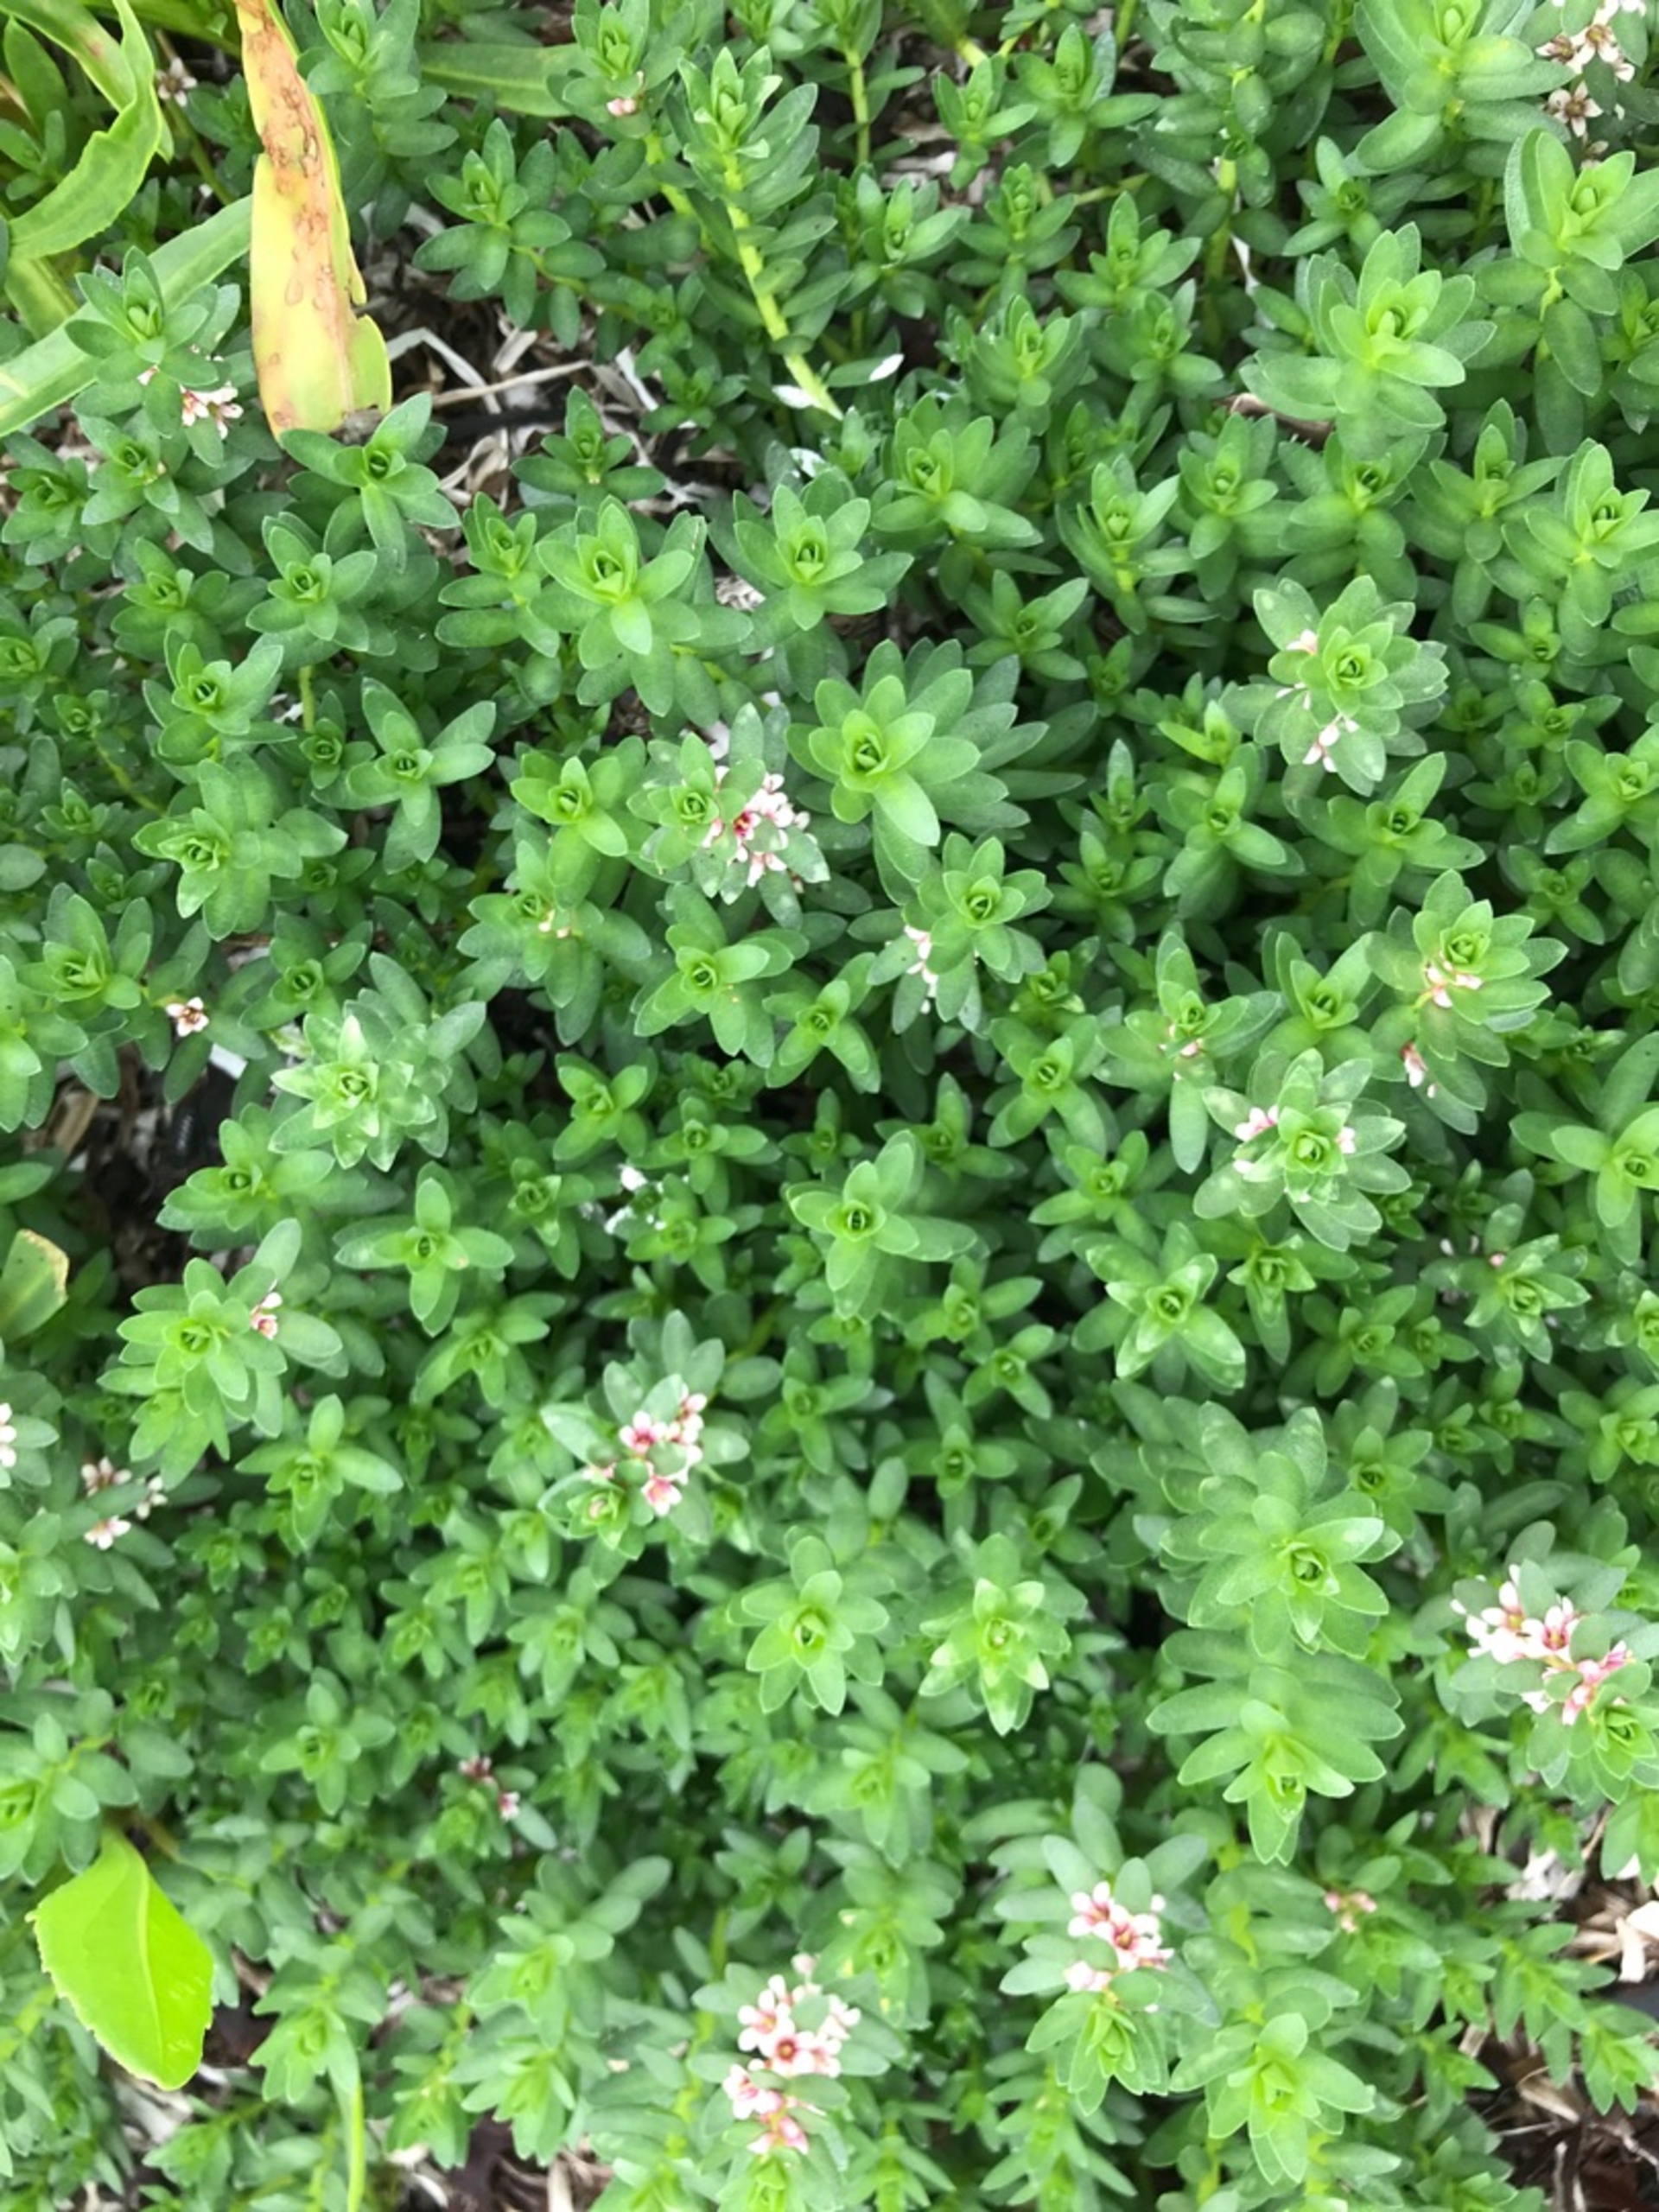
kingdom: Plantae
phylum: Tracheophyta
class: Magnoliopsida
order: Ericales
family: Primulaceae
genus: Lysimachia
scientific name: Lysimachia maritima
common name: Sandkryb
